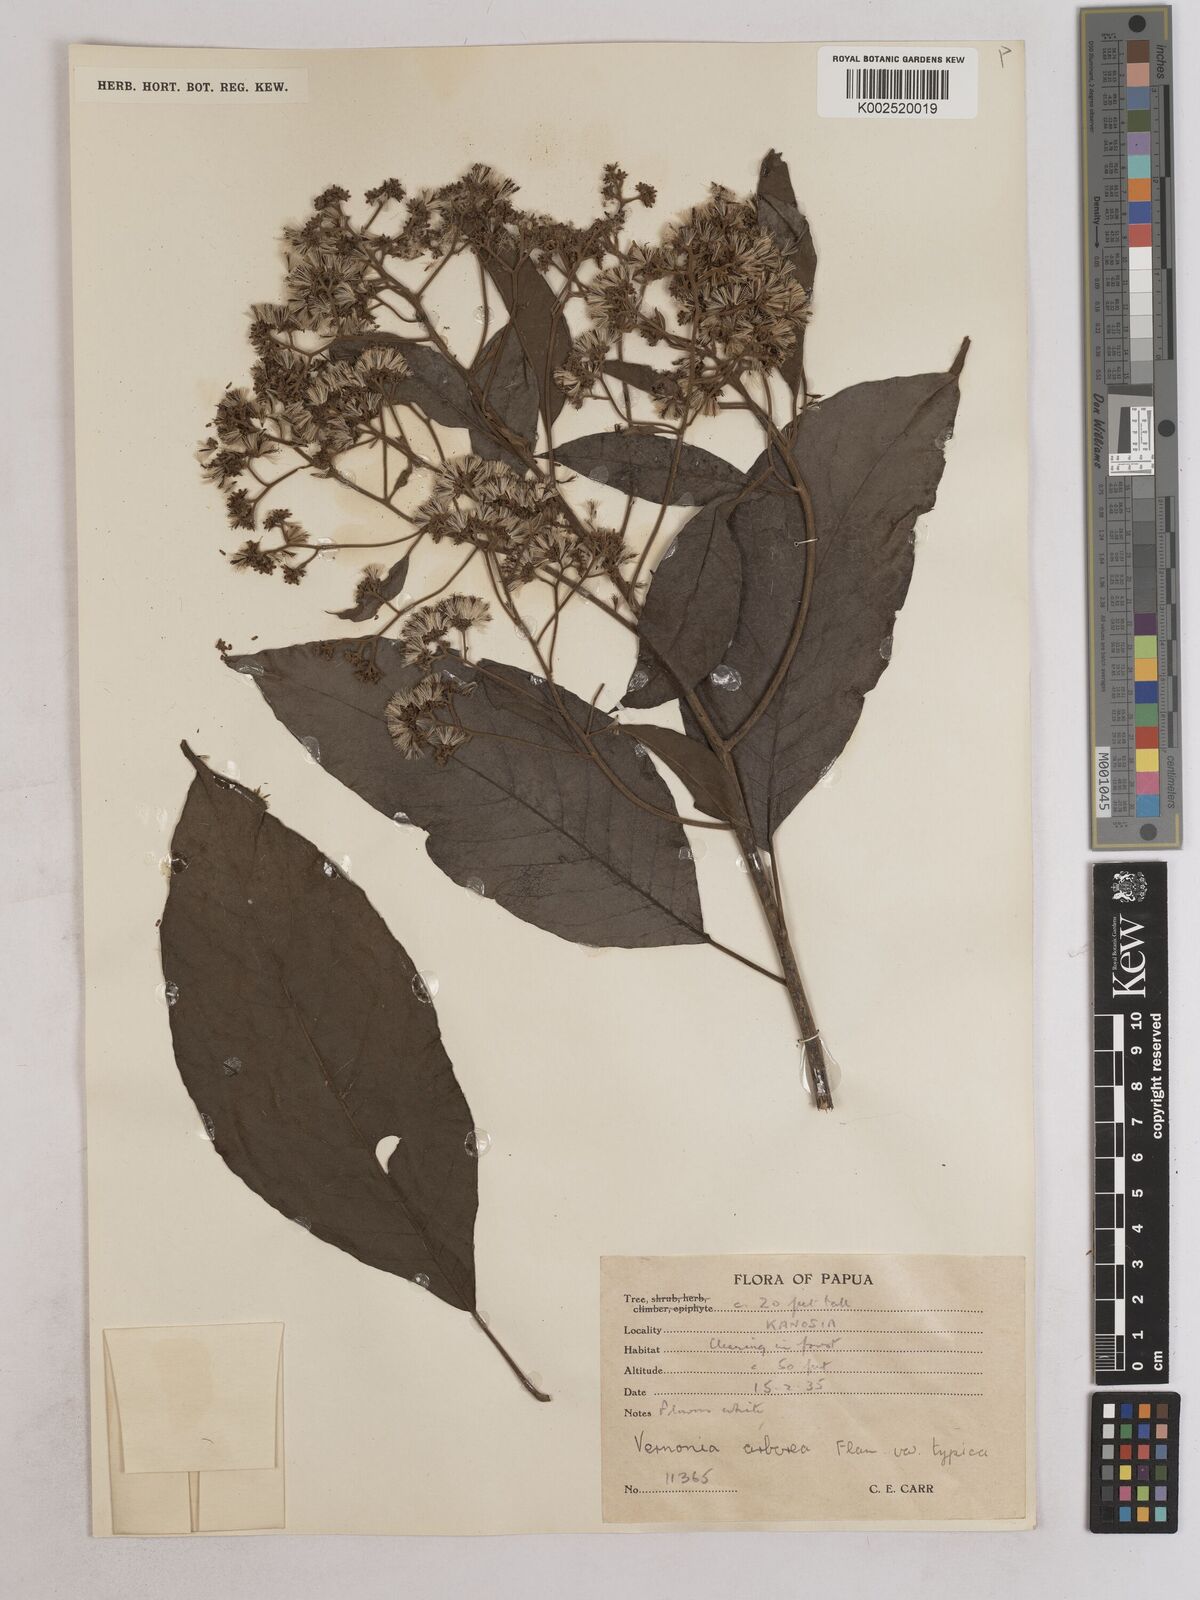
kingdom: Plantae
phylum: Tracheophyta
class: Magnoliopsida
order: Asterales
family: Asteraceae
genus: Vernonia
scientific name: Vernonia
